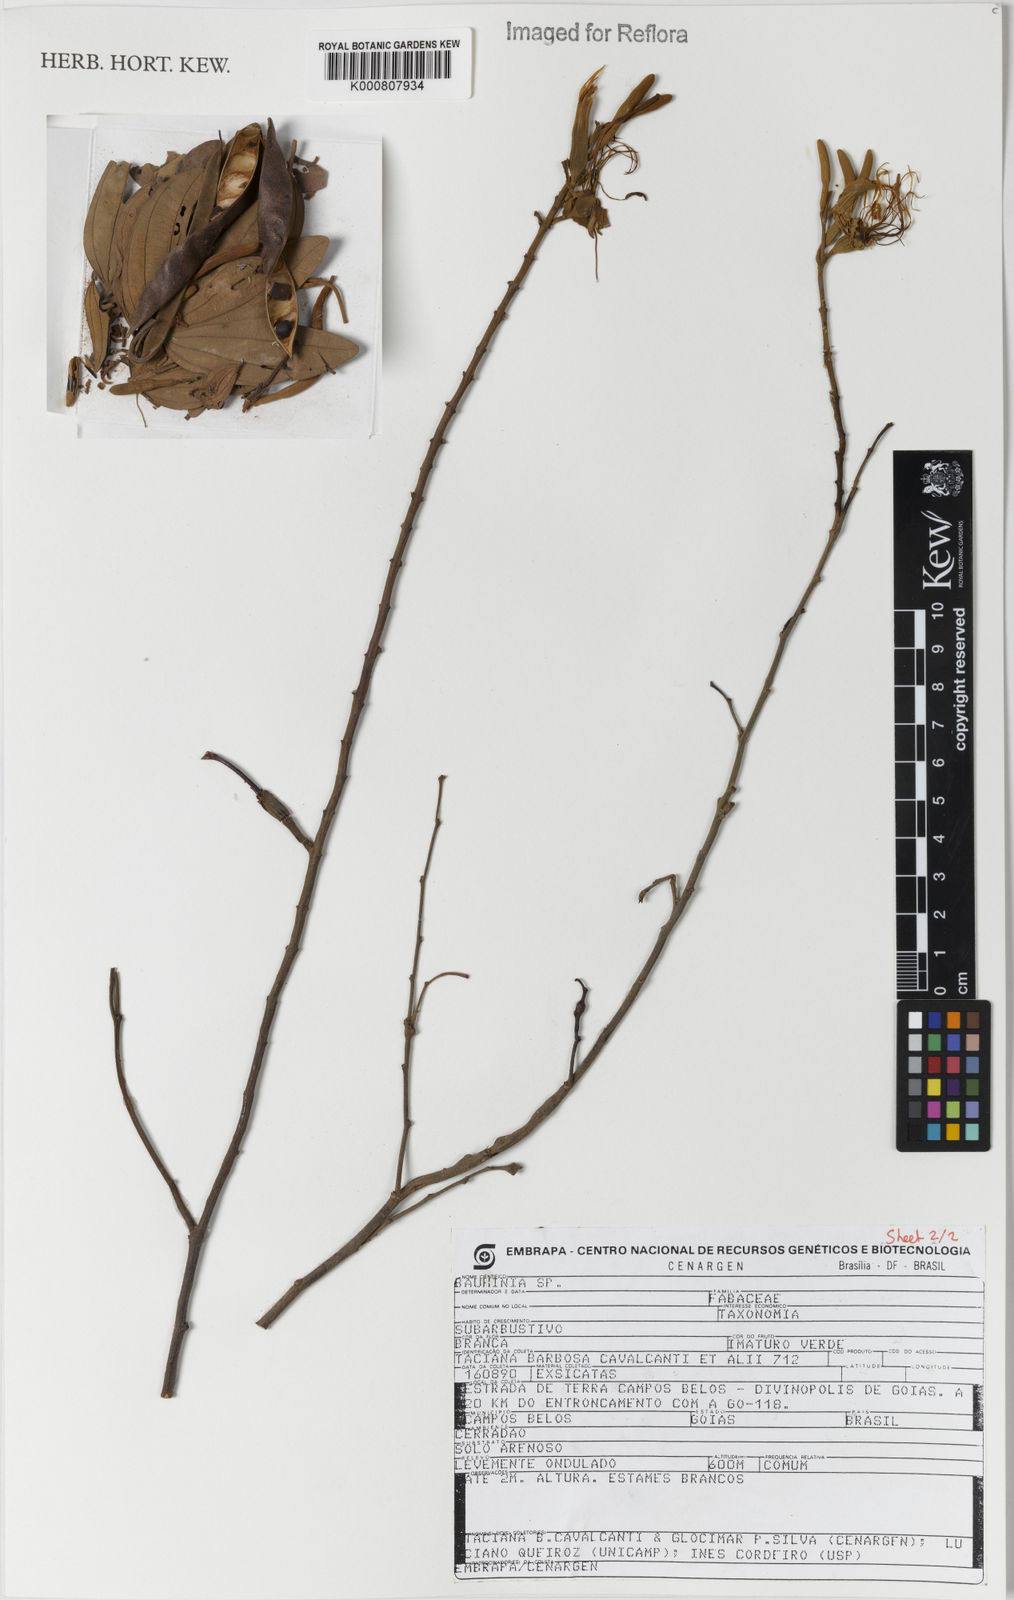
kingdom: Plantae
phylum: Tracheophyta
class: Magnoliopsida
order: Fabales
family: Fabaceae
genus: Bauhinia
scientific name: Bauhinia
